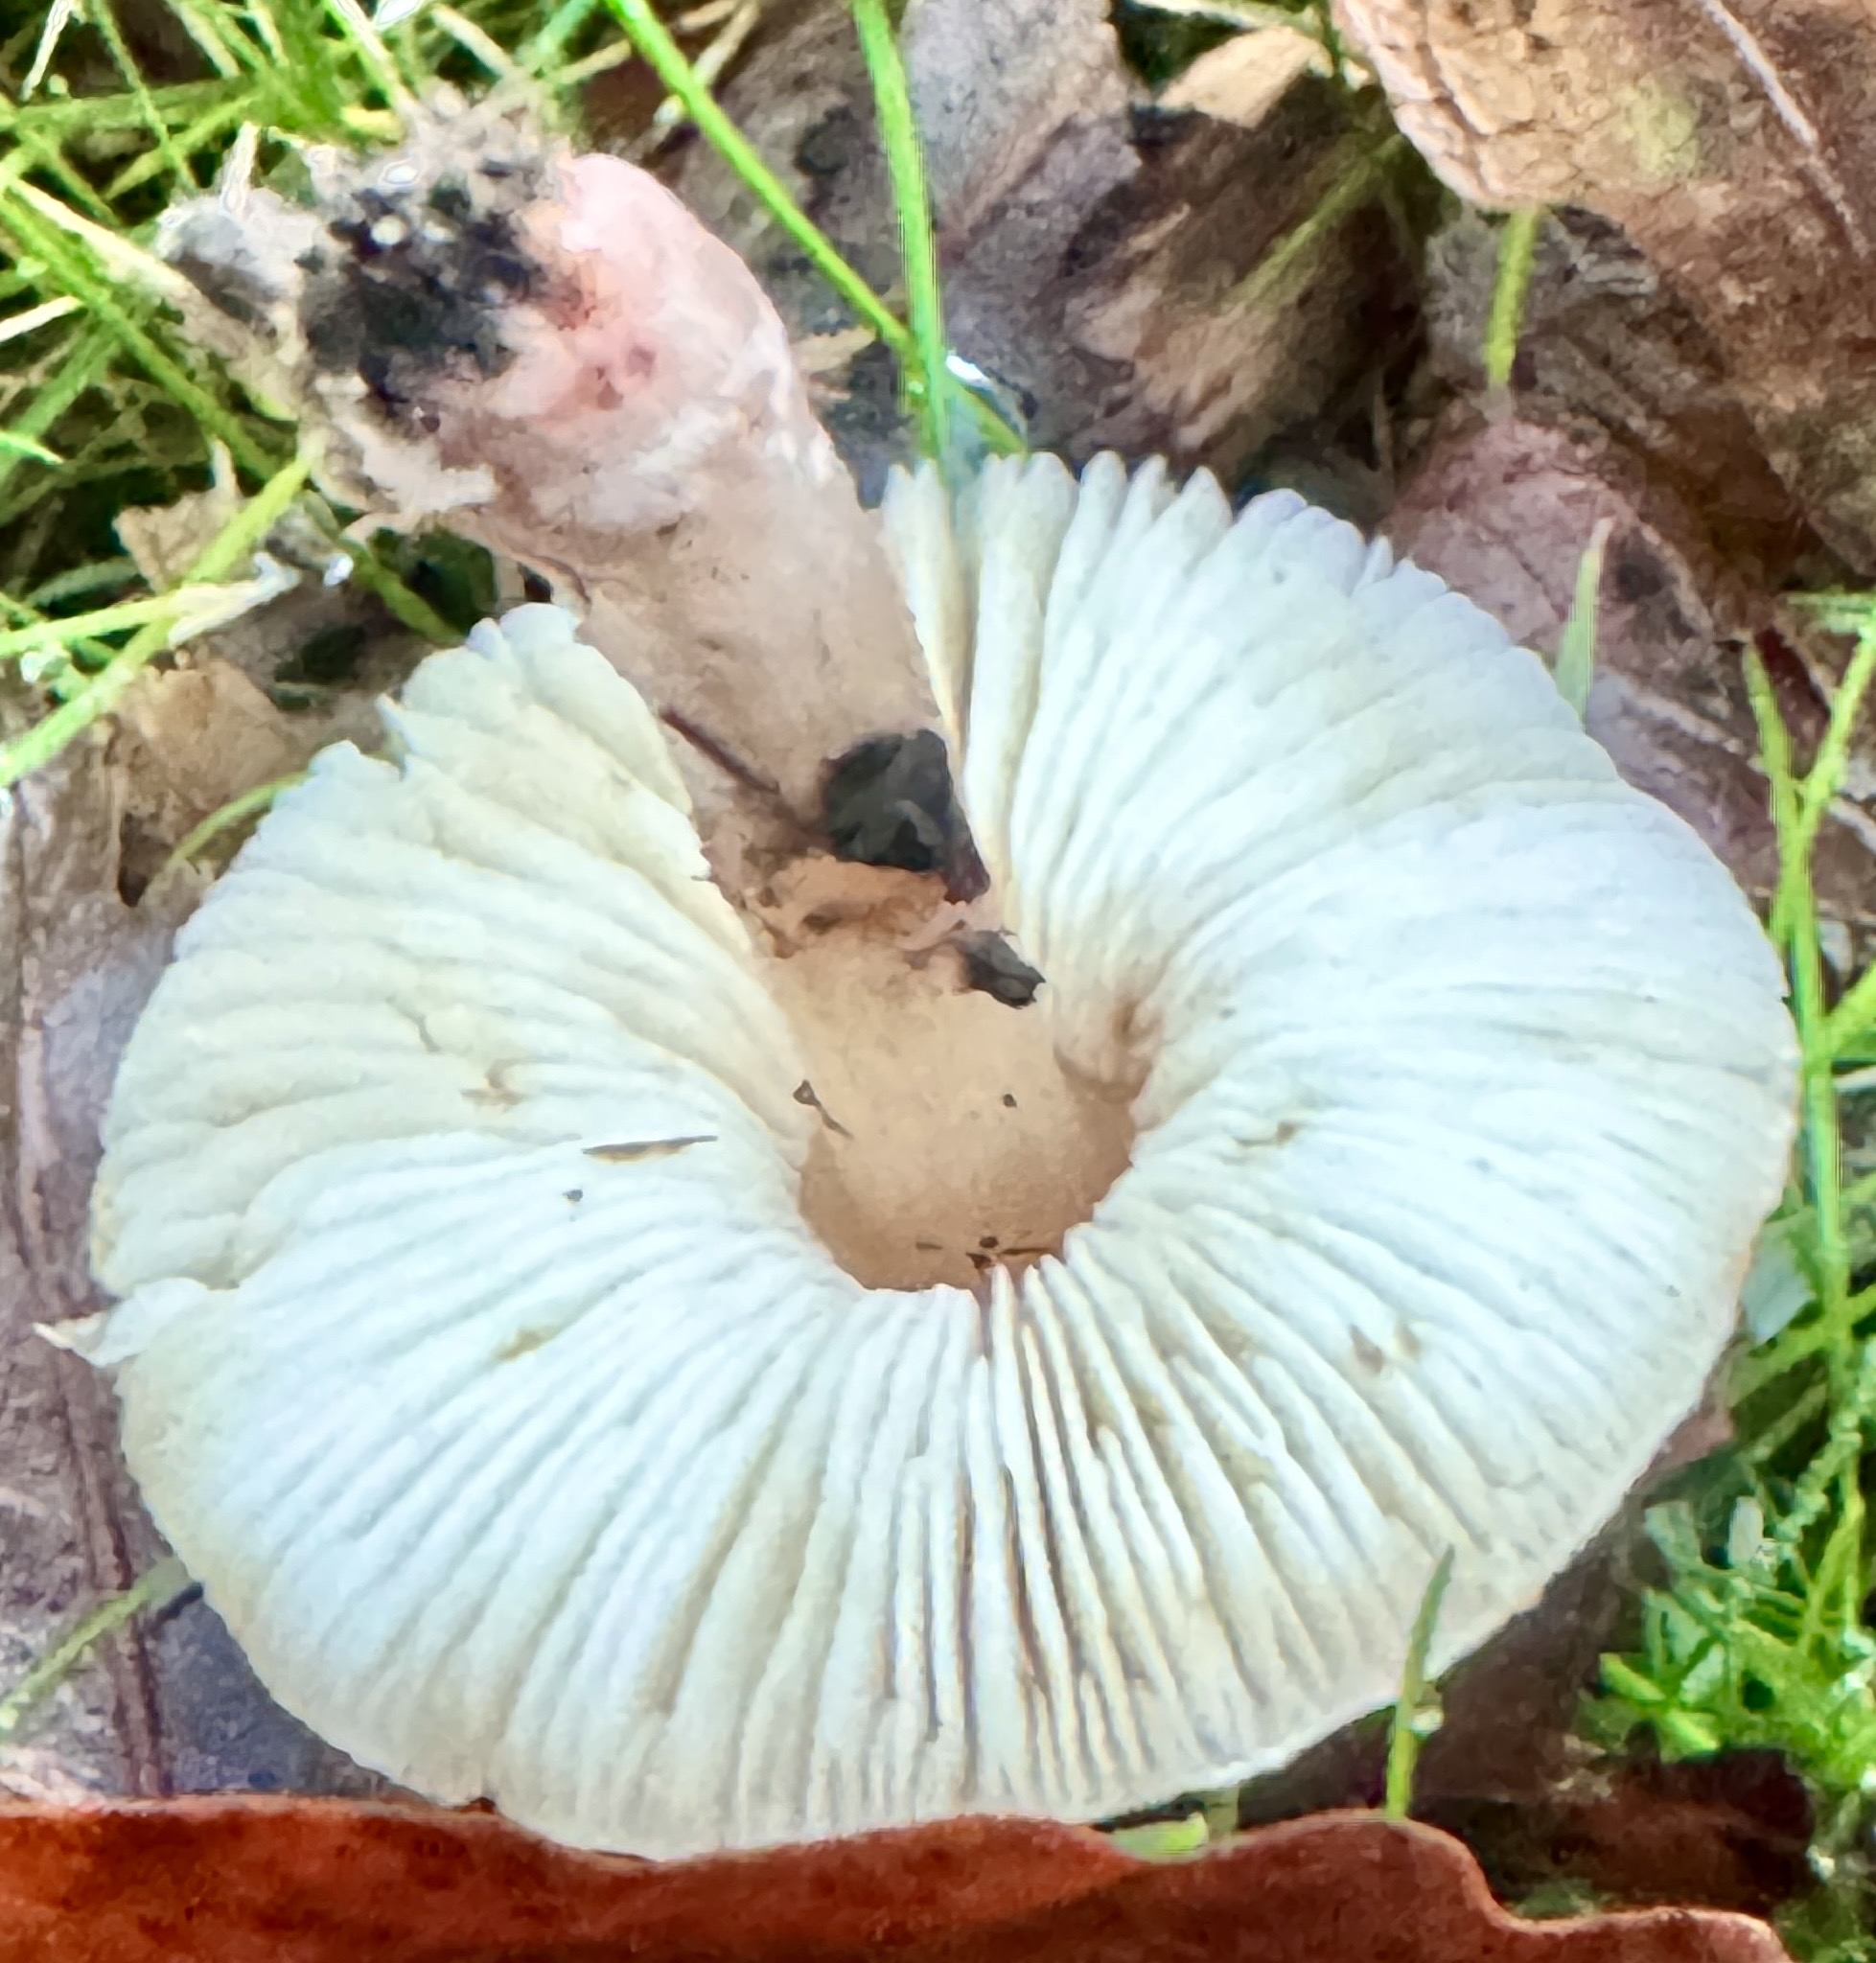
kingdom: Fungi
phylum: Basidiomycota
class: Agaricomycetes
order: Agaricales
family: Agaricaceae
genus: Lepiota
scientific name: Lepiota cristata
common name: stinkende parasolhat
